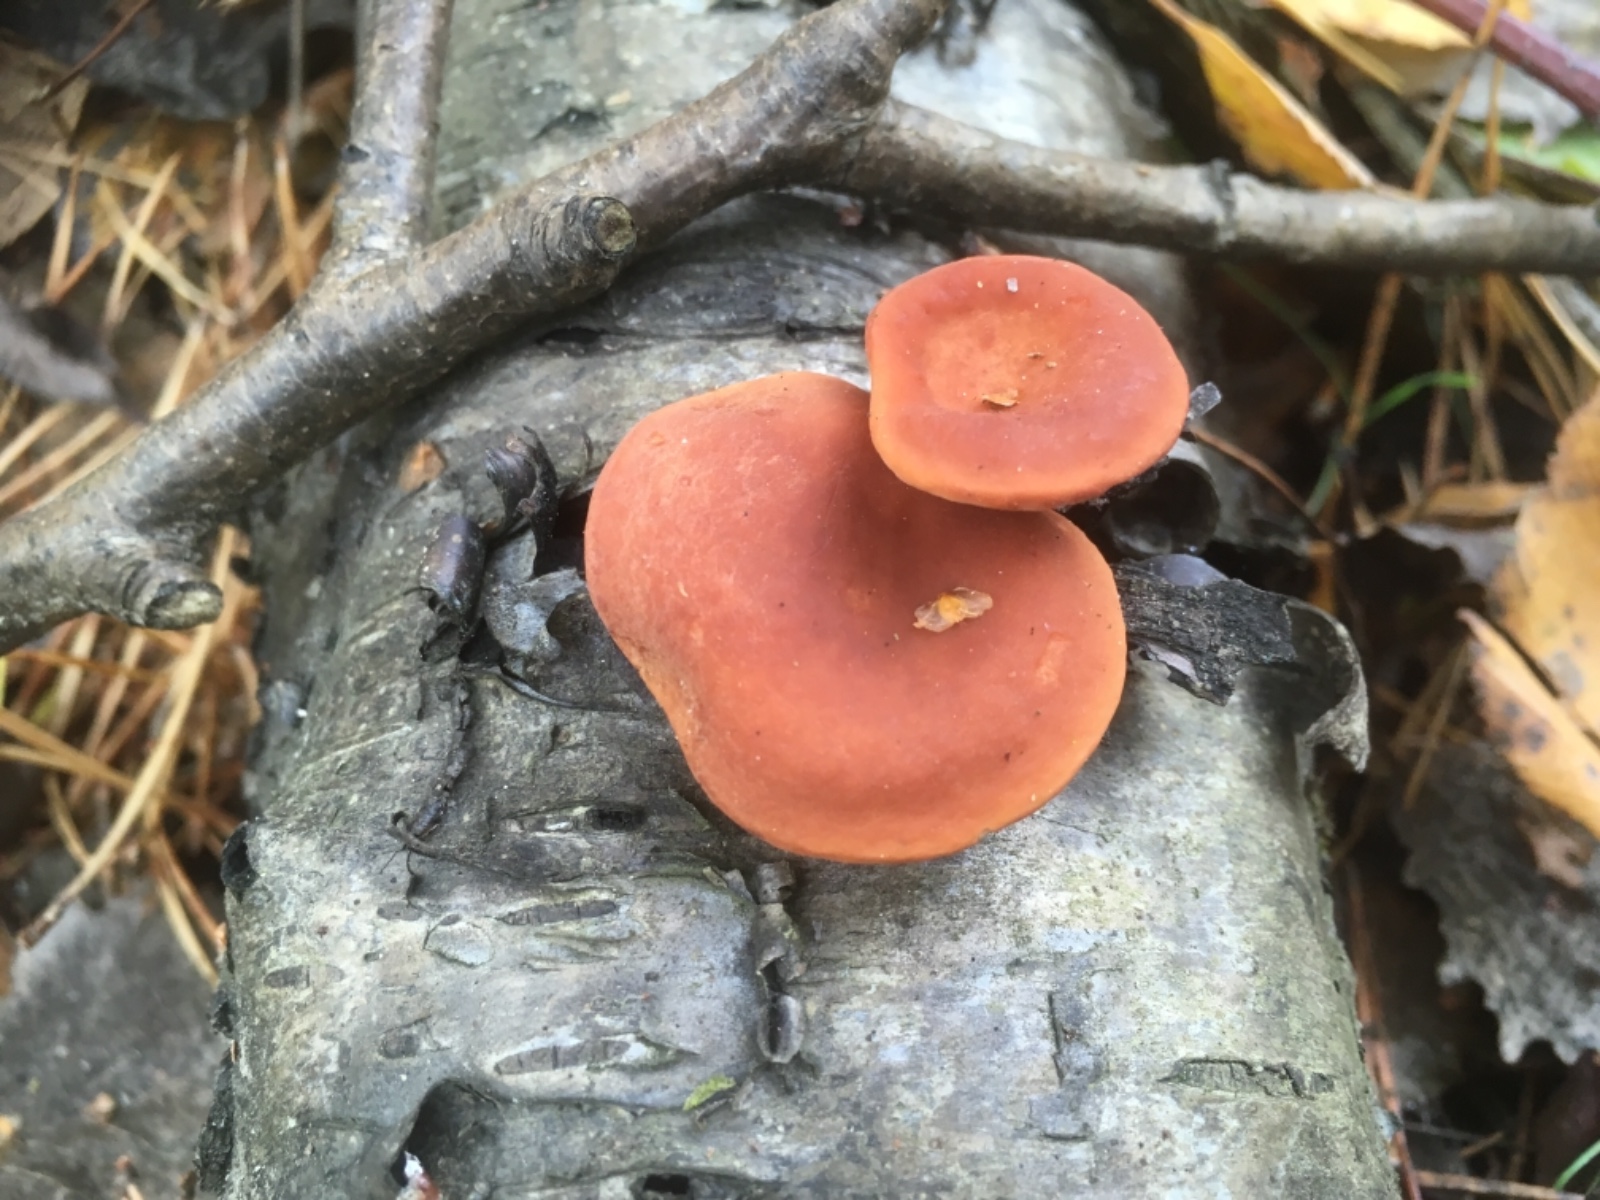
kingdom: Fungi
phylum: Basidiomycota
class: Agaricomycetes
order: Russulales
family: Russulaceae
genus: Lactarius
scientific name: Lactarius aurantiacus
